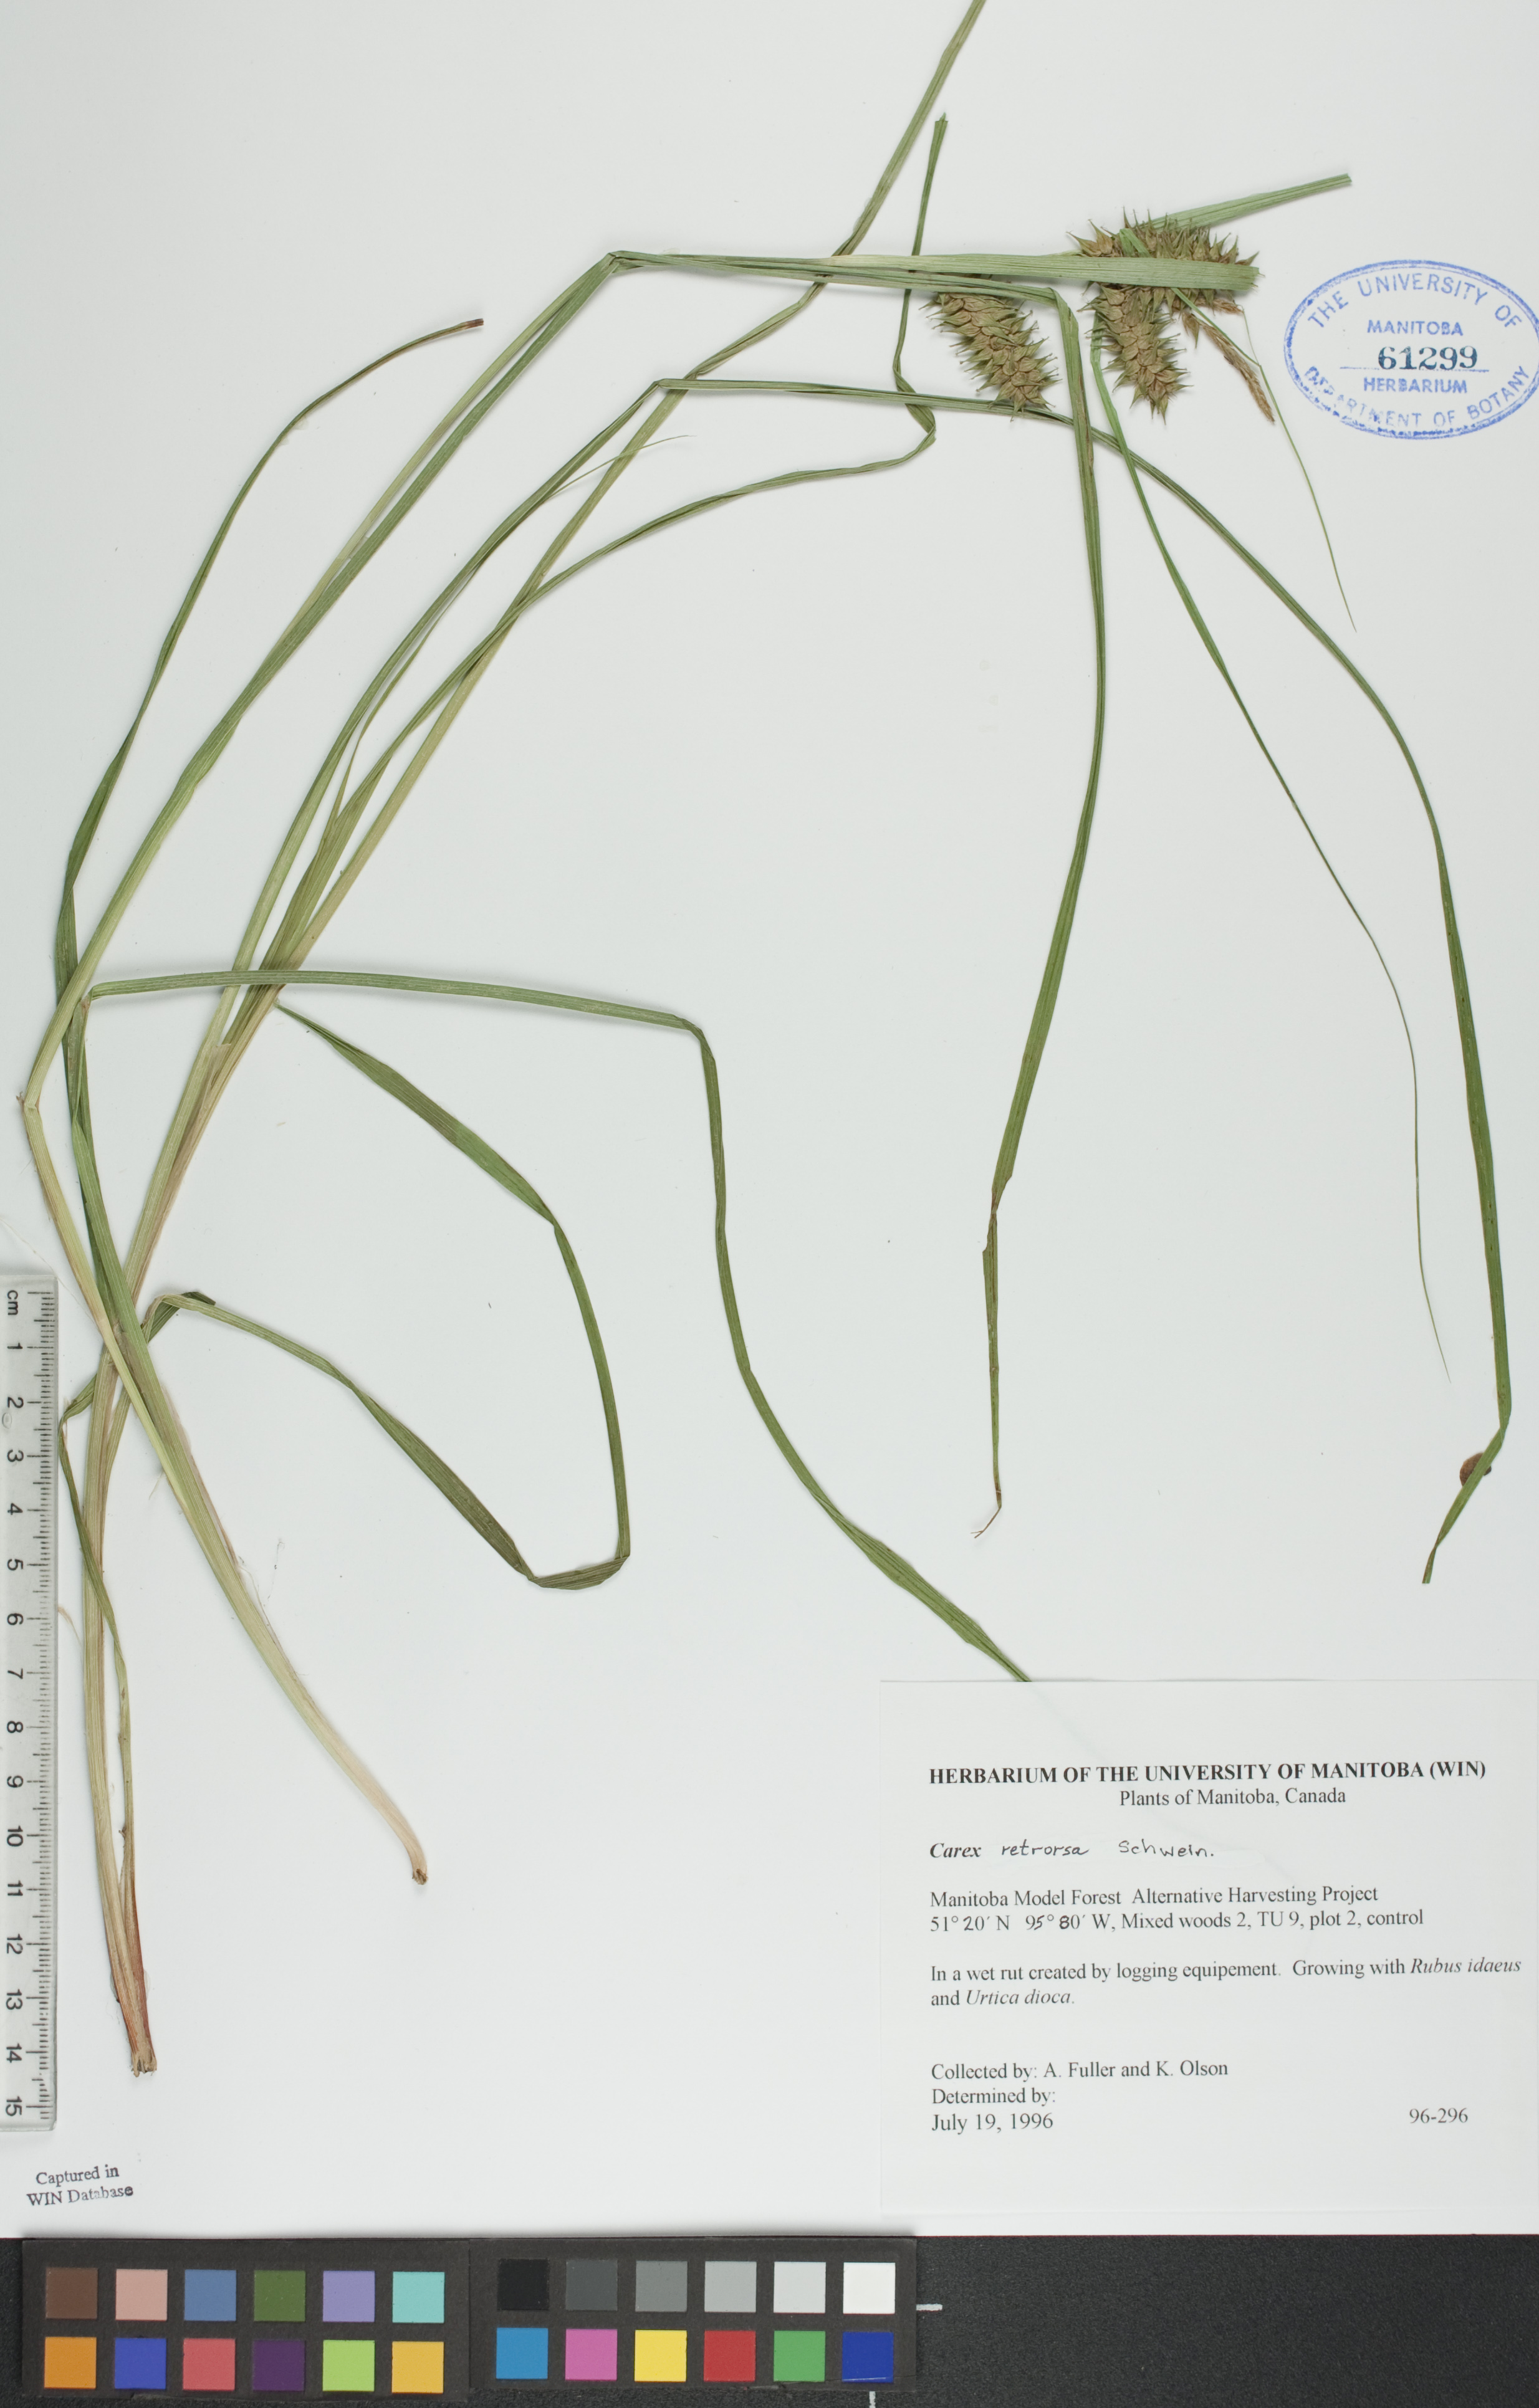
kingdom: Plantae
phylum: Tracheophyta
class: Liliopsida
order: Poales
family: Cyperaceae
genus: Carex
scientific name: Carex retrorsa
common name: Knot-sheath sedge
